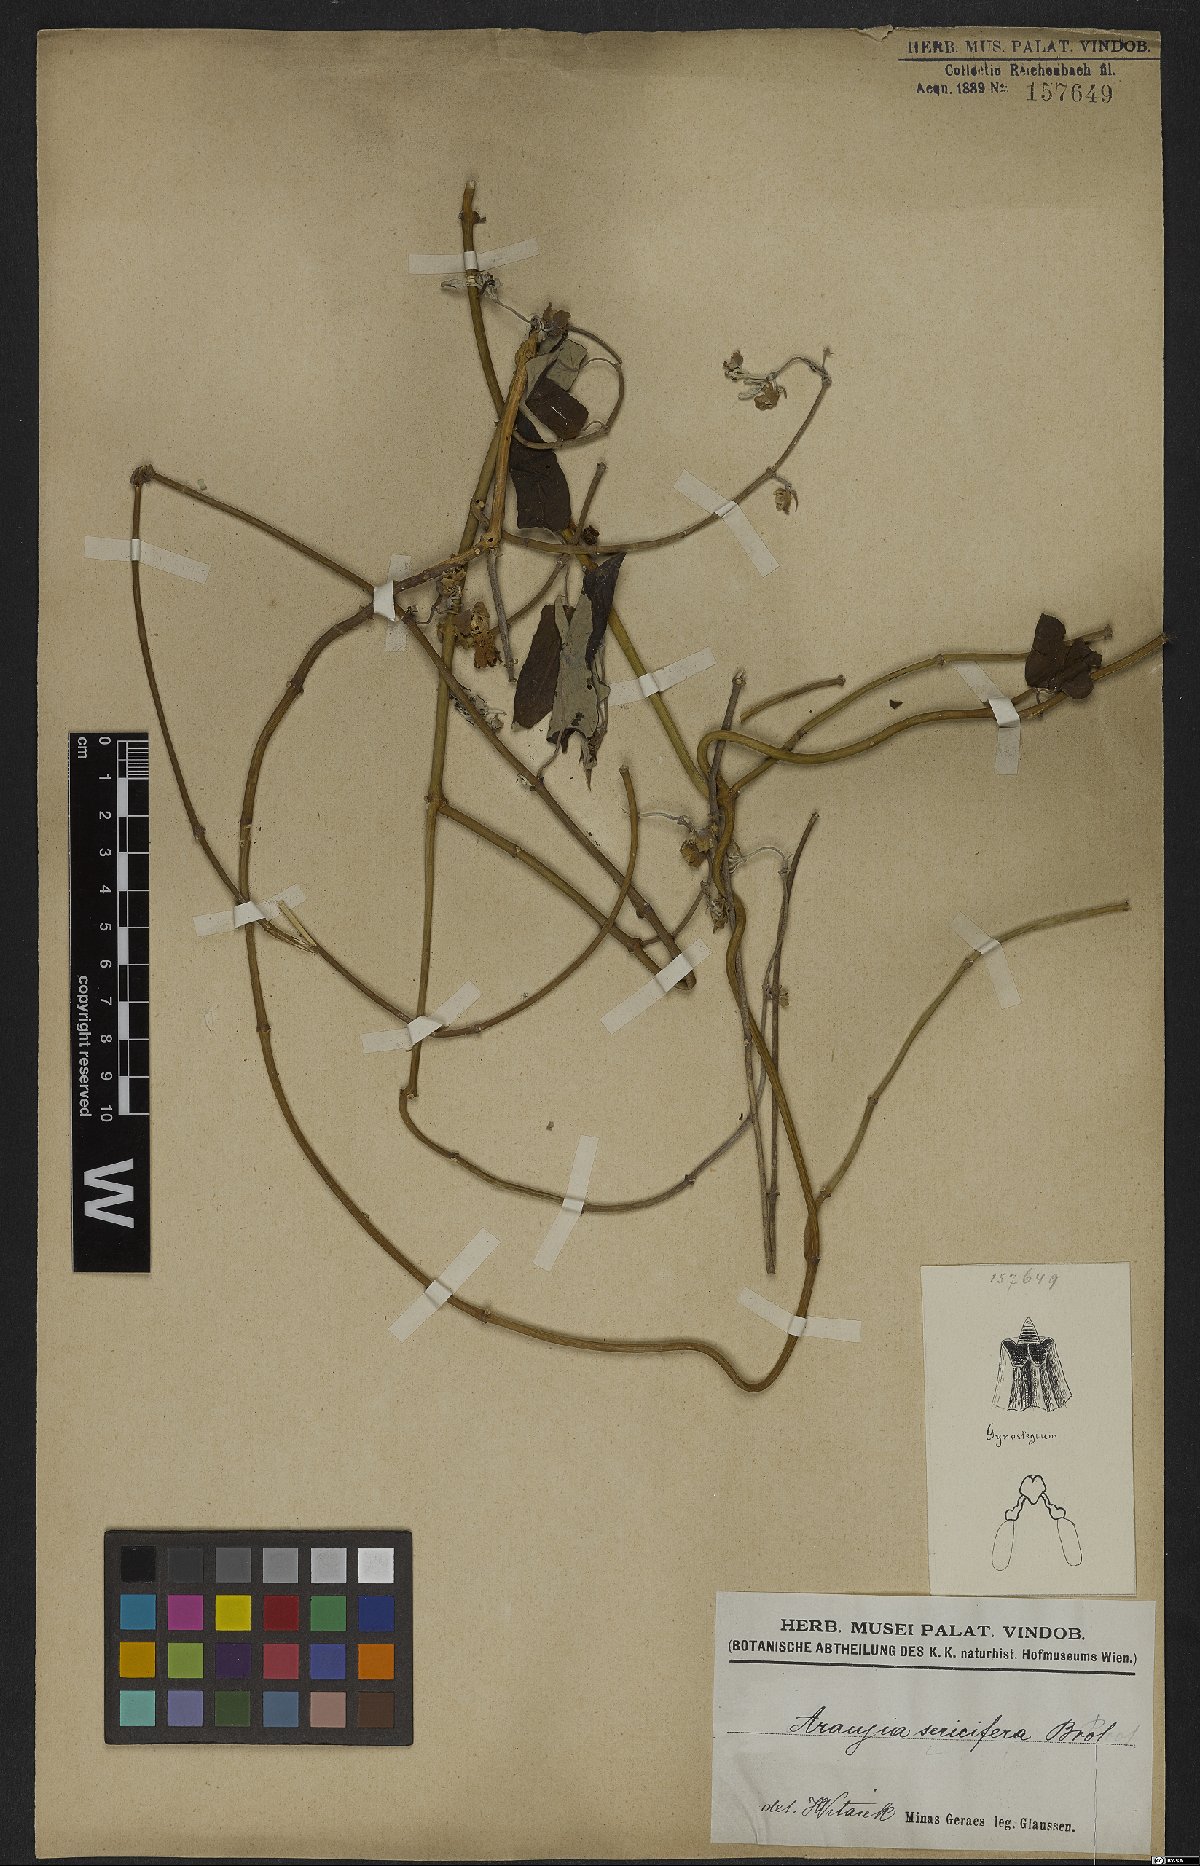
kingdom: Plantae
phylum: Tracheophyta
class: Magnoliopsida
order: Gentianales
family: Apocynaceae
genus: Araujia
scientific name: Araujia sericifera
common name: White bladderflower
